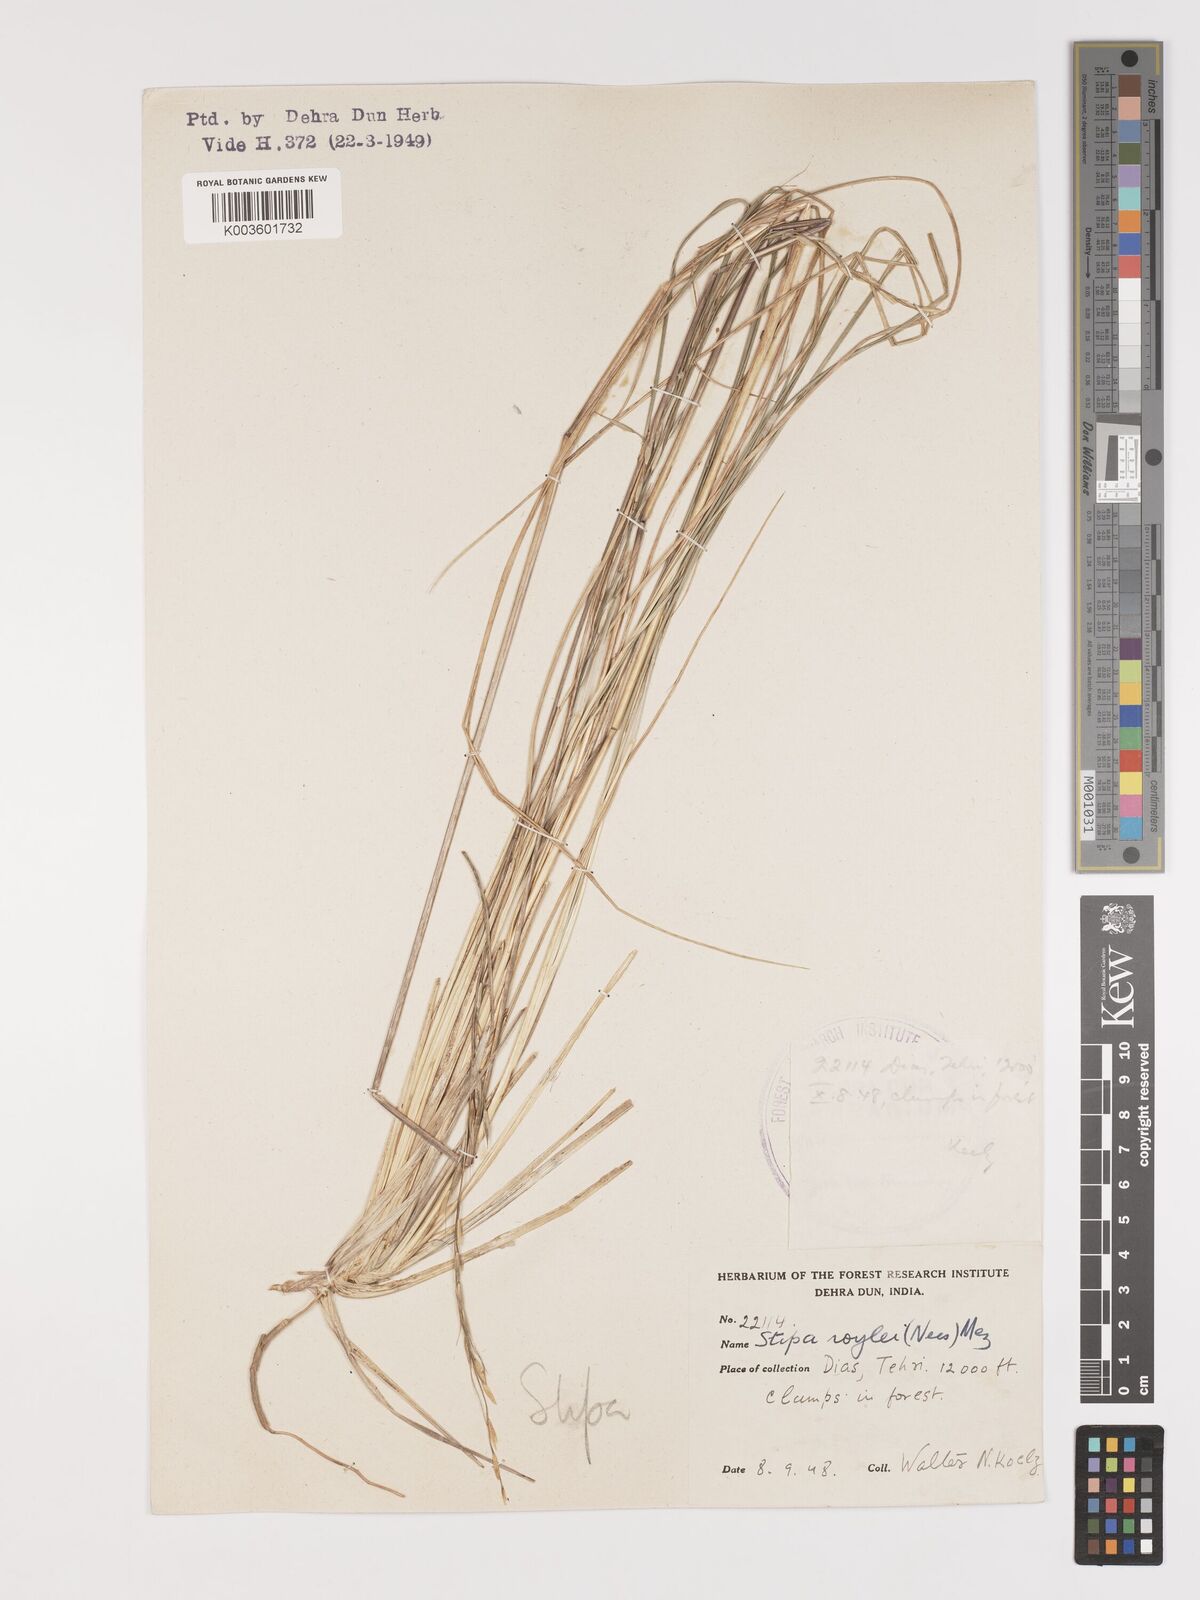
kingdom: Plantae
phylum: Tracheophyta
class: Liliopsida
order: Poales
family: Poaceae
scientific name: Poaceae
